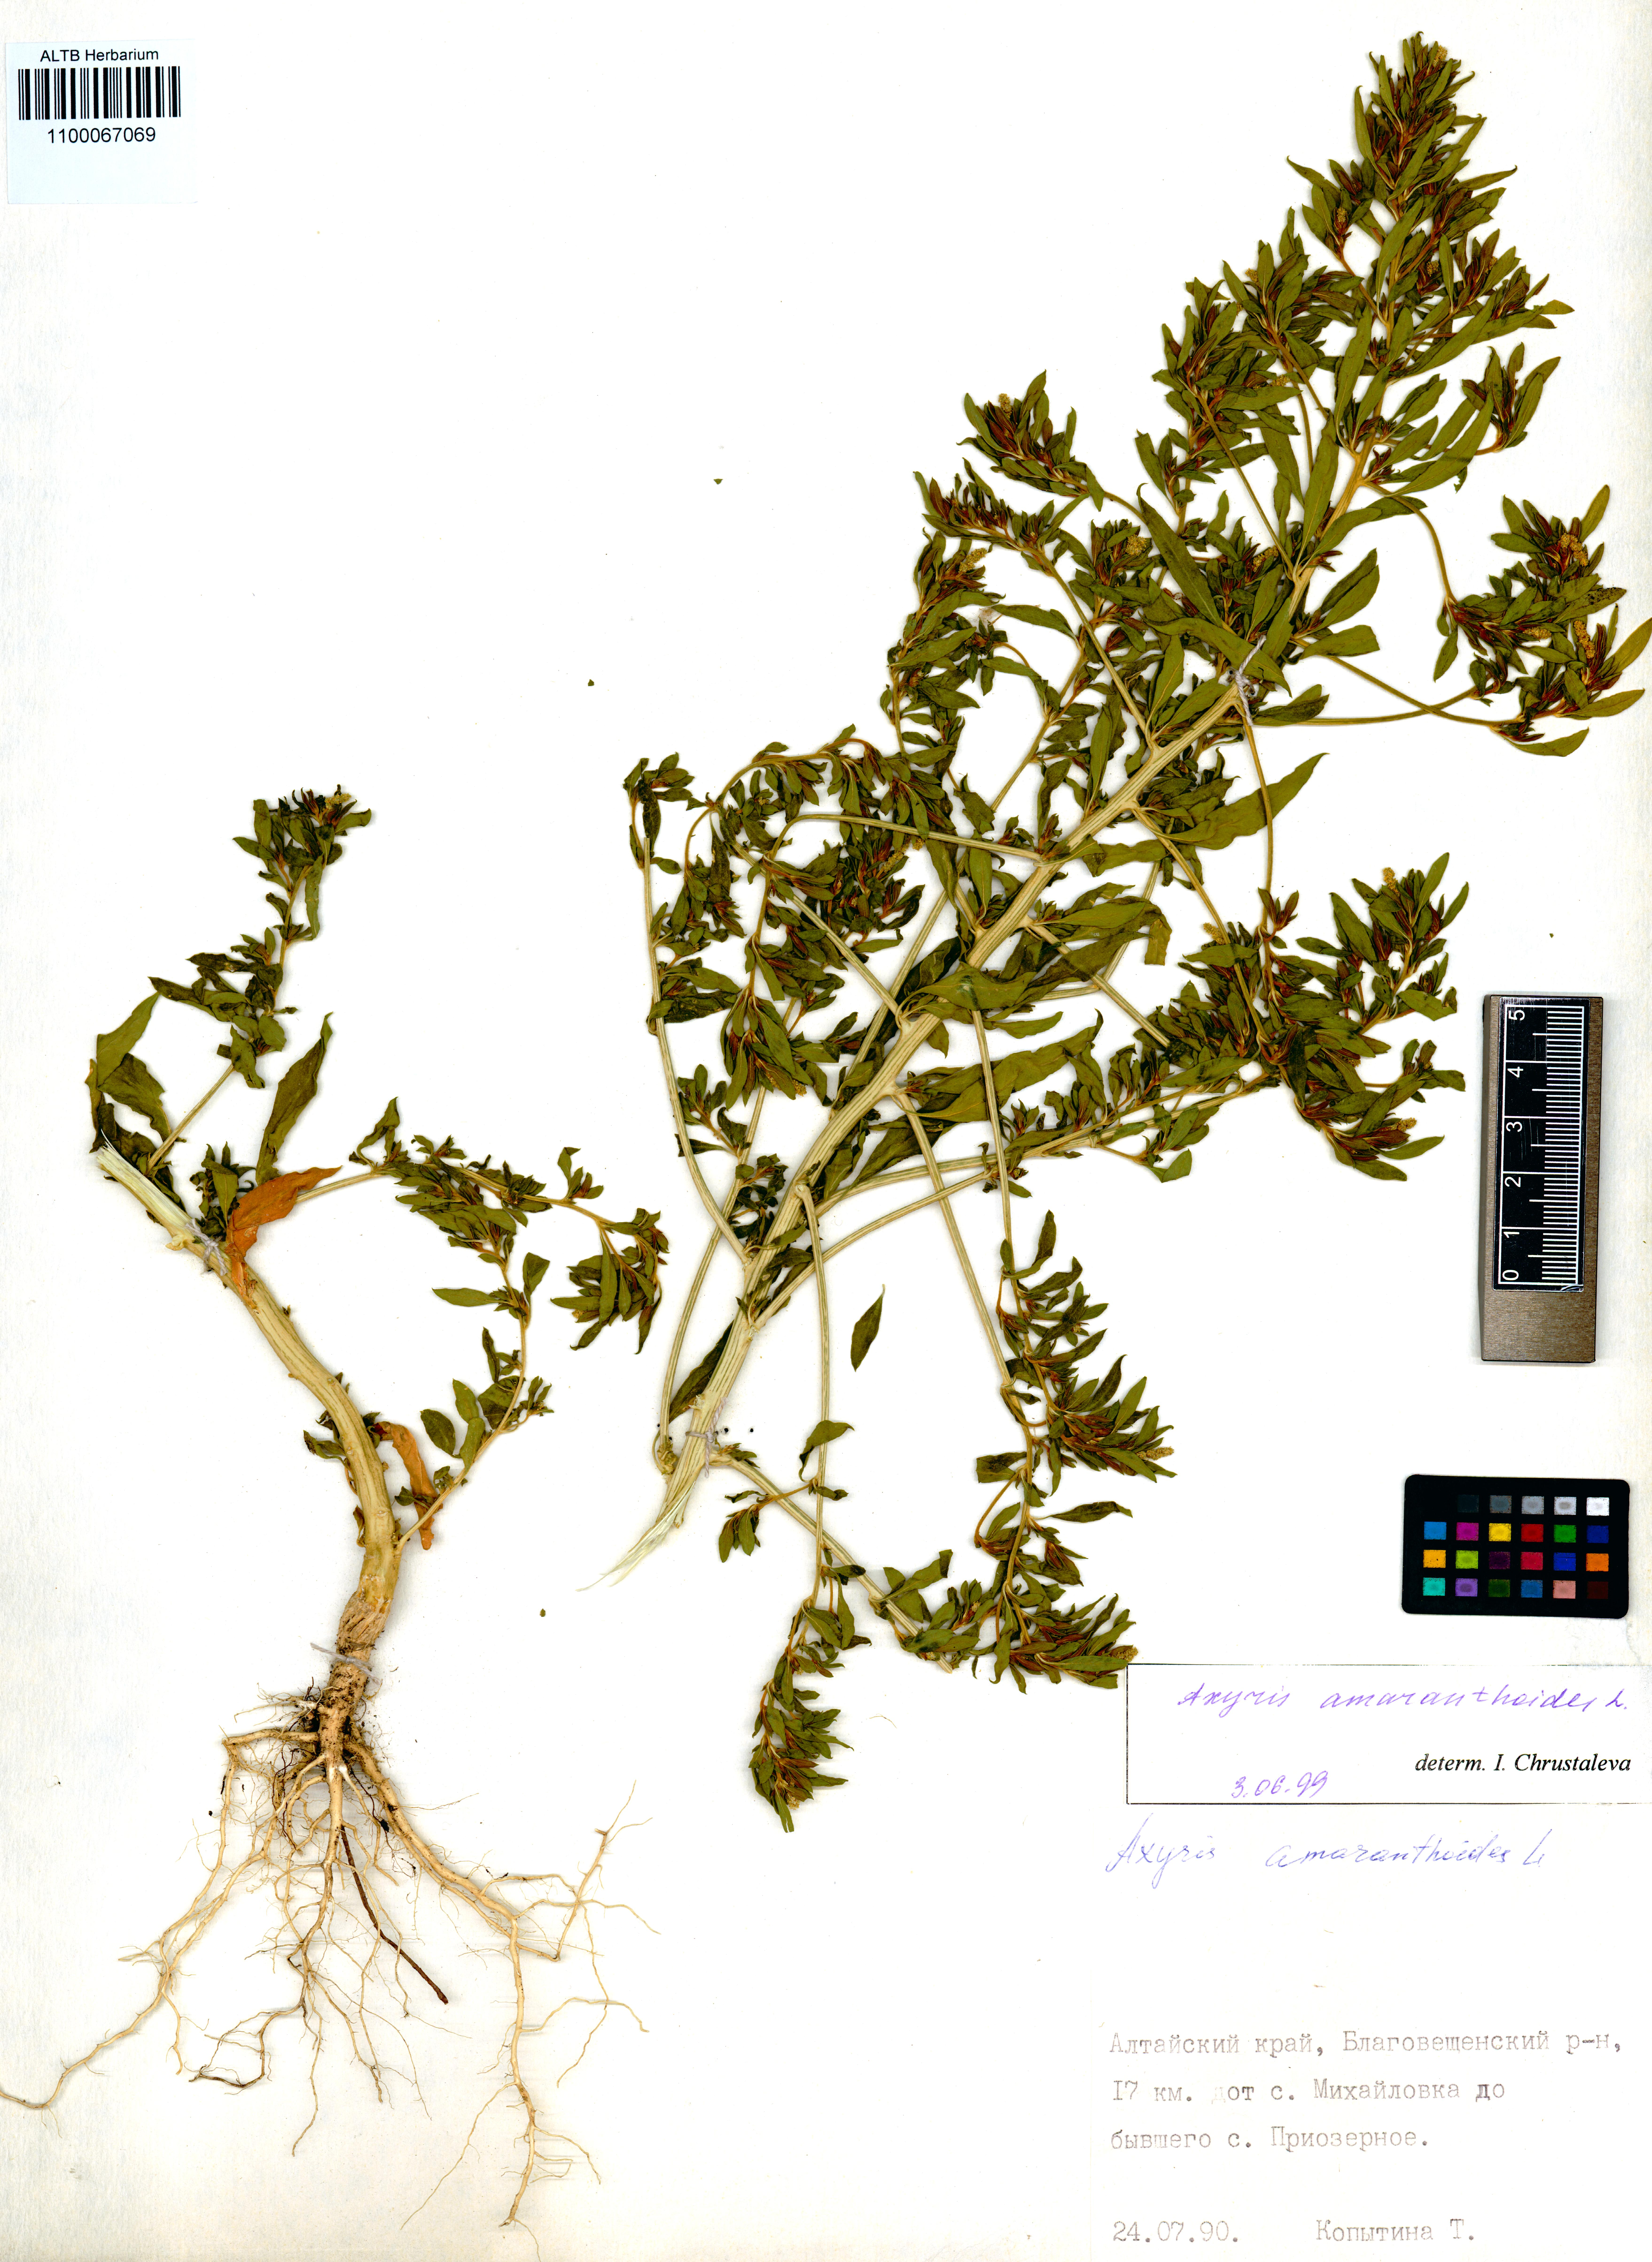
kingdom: Plantae
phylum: Tracheophyta
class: Magnoliopsida
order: Caryophyllales
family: Amaranthaceae
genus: Axyris
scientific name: Axyris amaranthoides
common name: Russian pigweed
